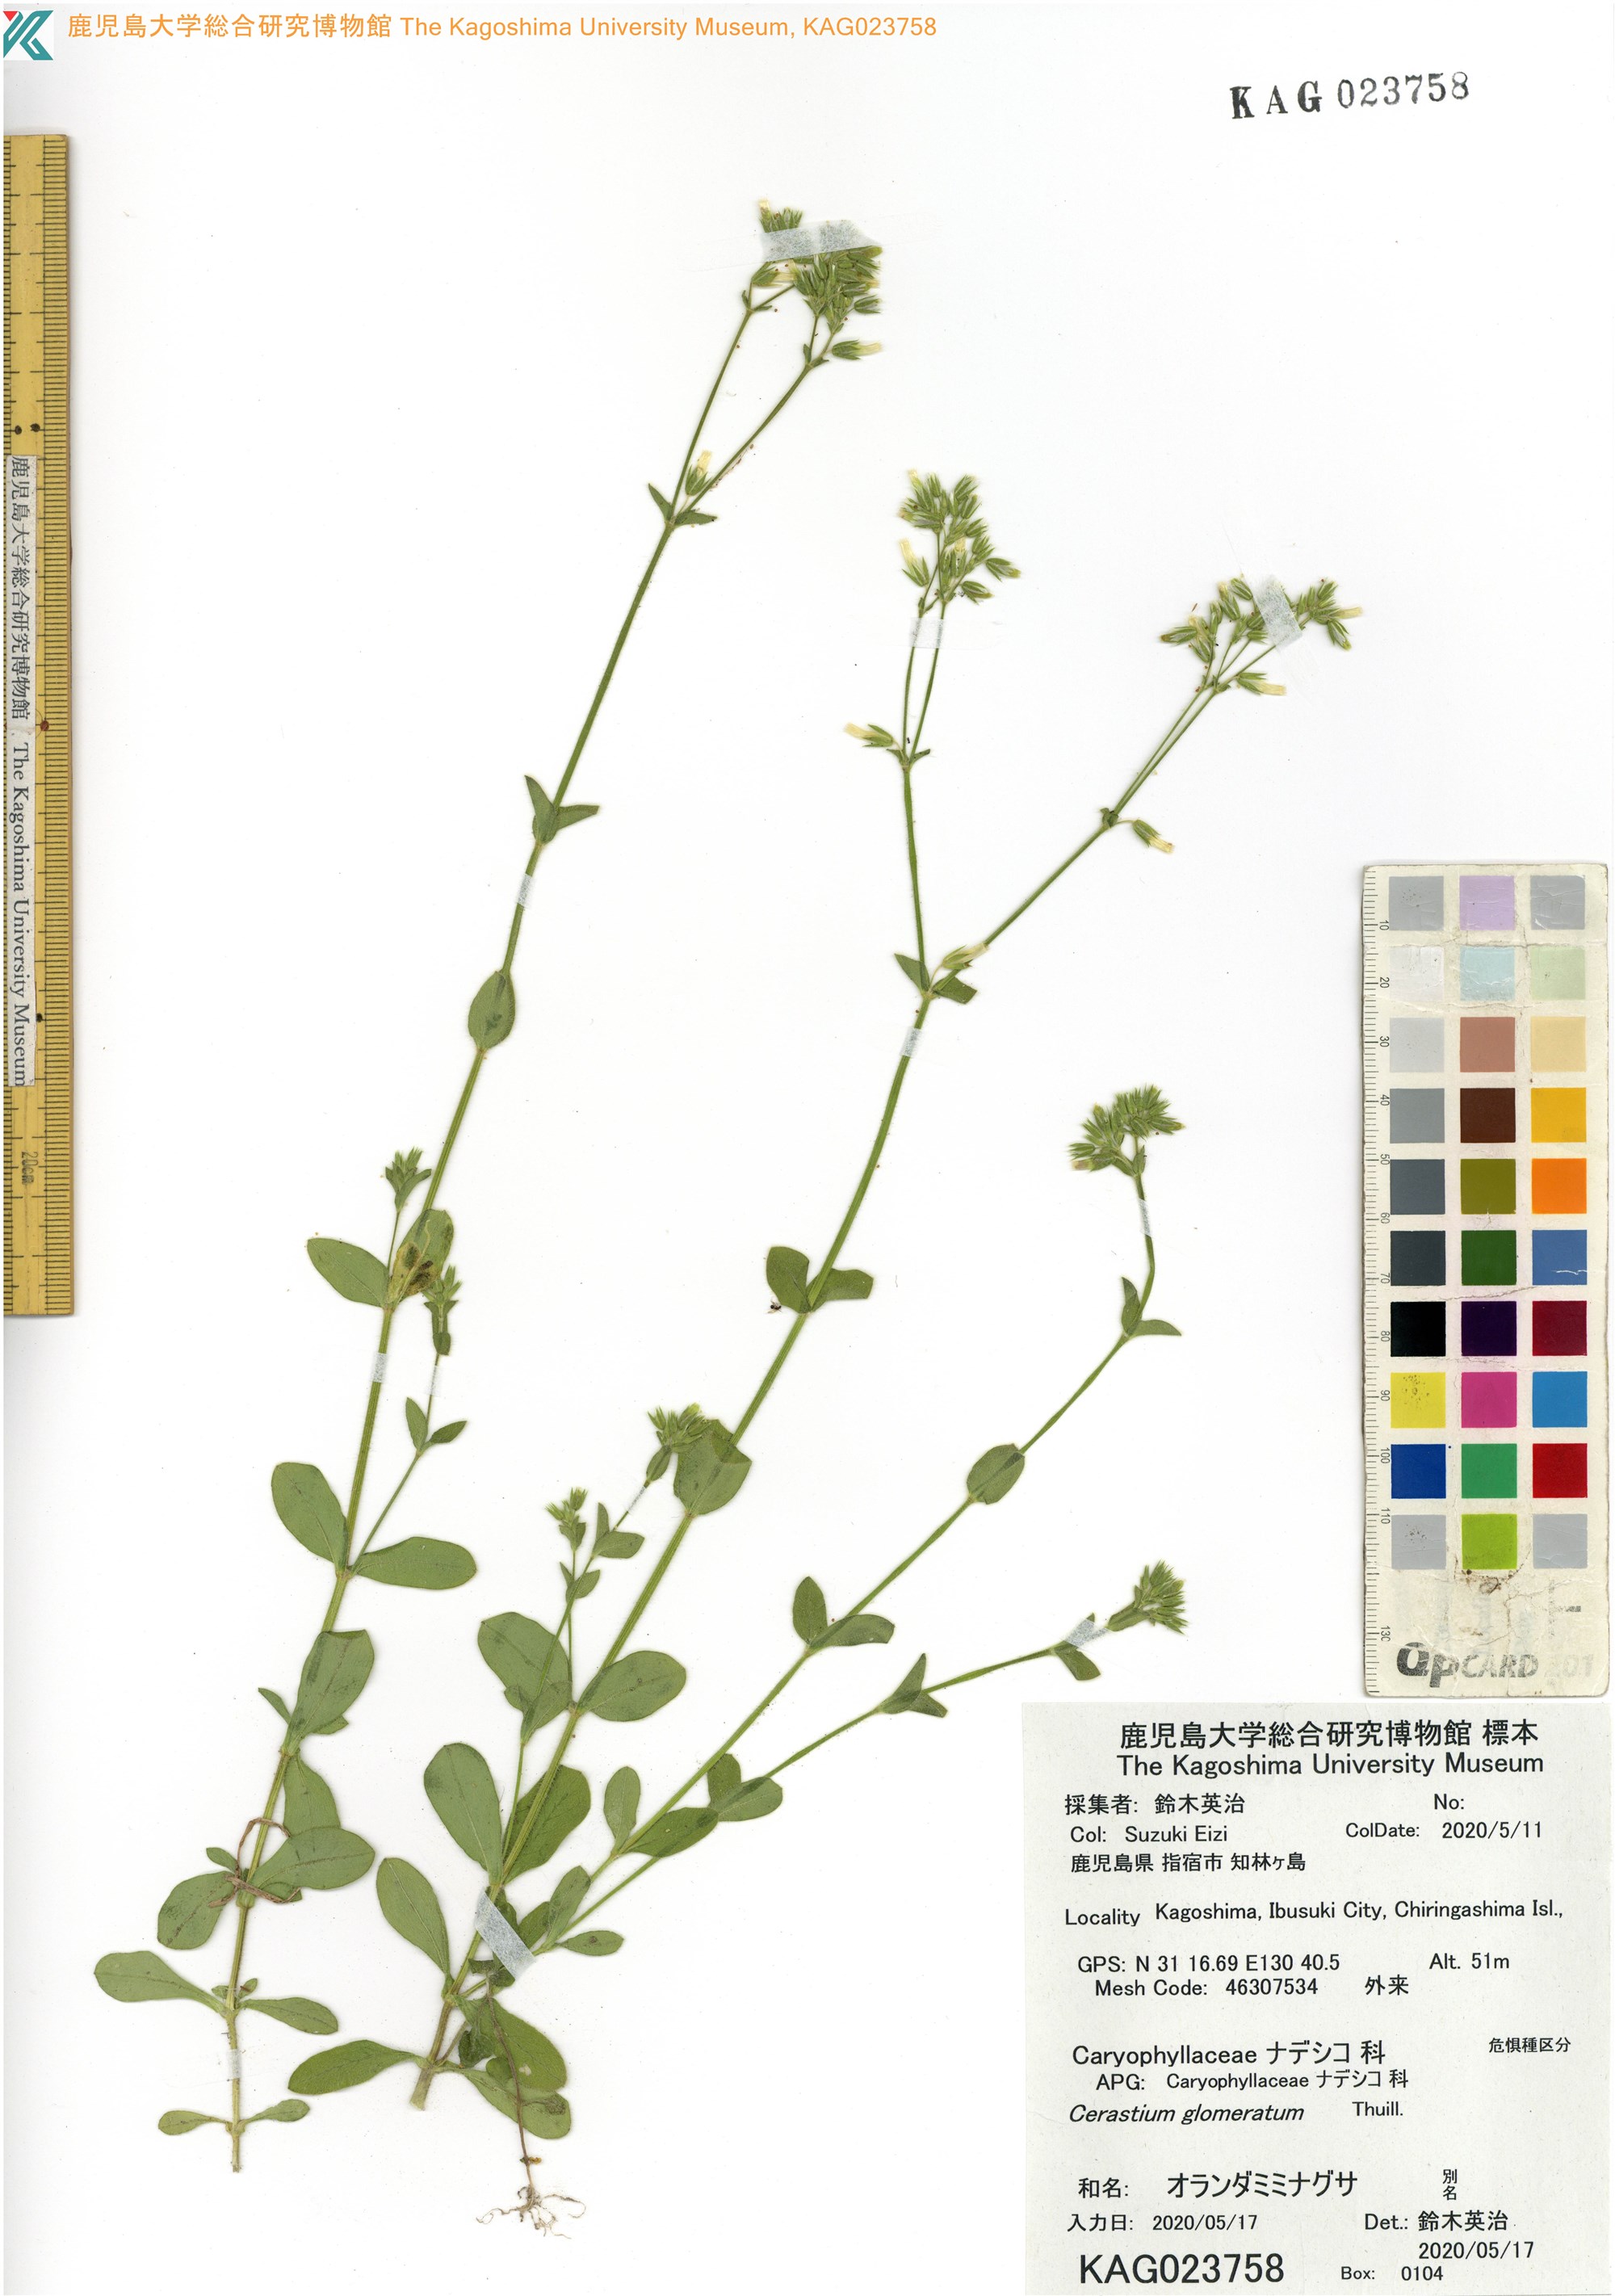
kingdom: Plantae
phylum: Tracheophyta
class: Magnoliopsida
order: Caryophyllales
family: Caryophyllaceae
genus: Cerastium
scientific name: Cerastium glomeratum
